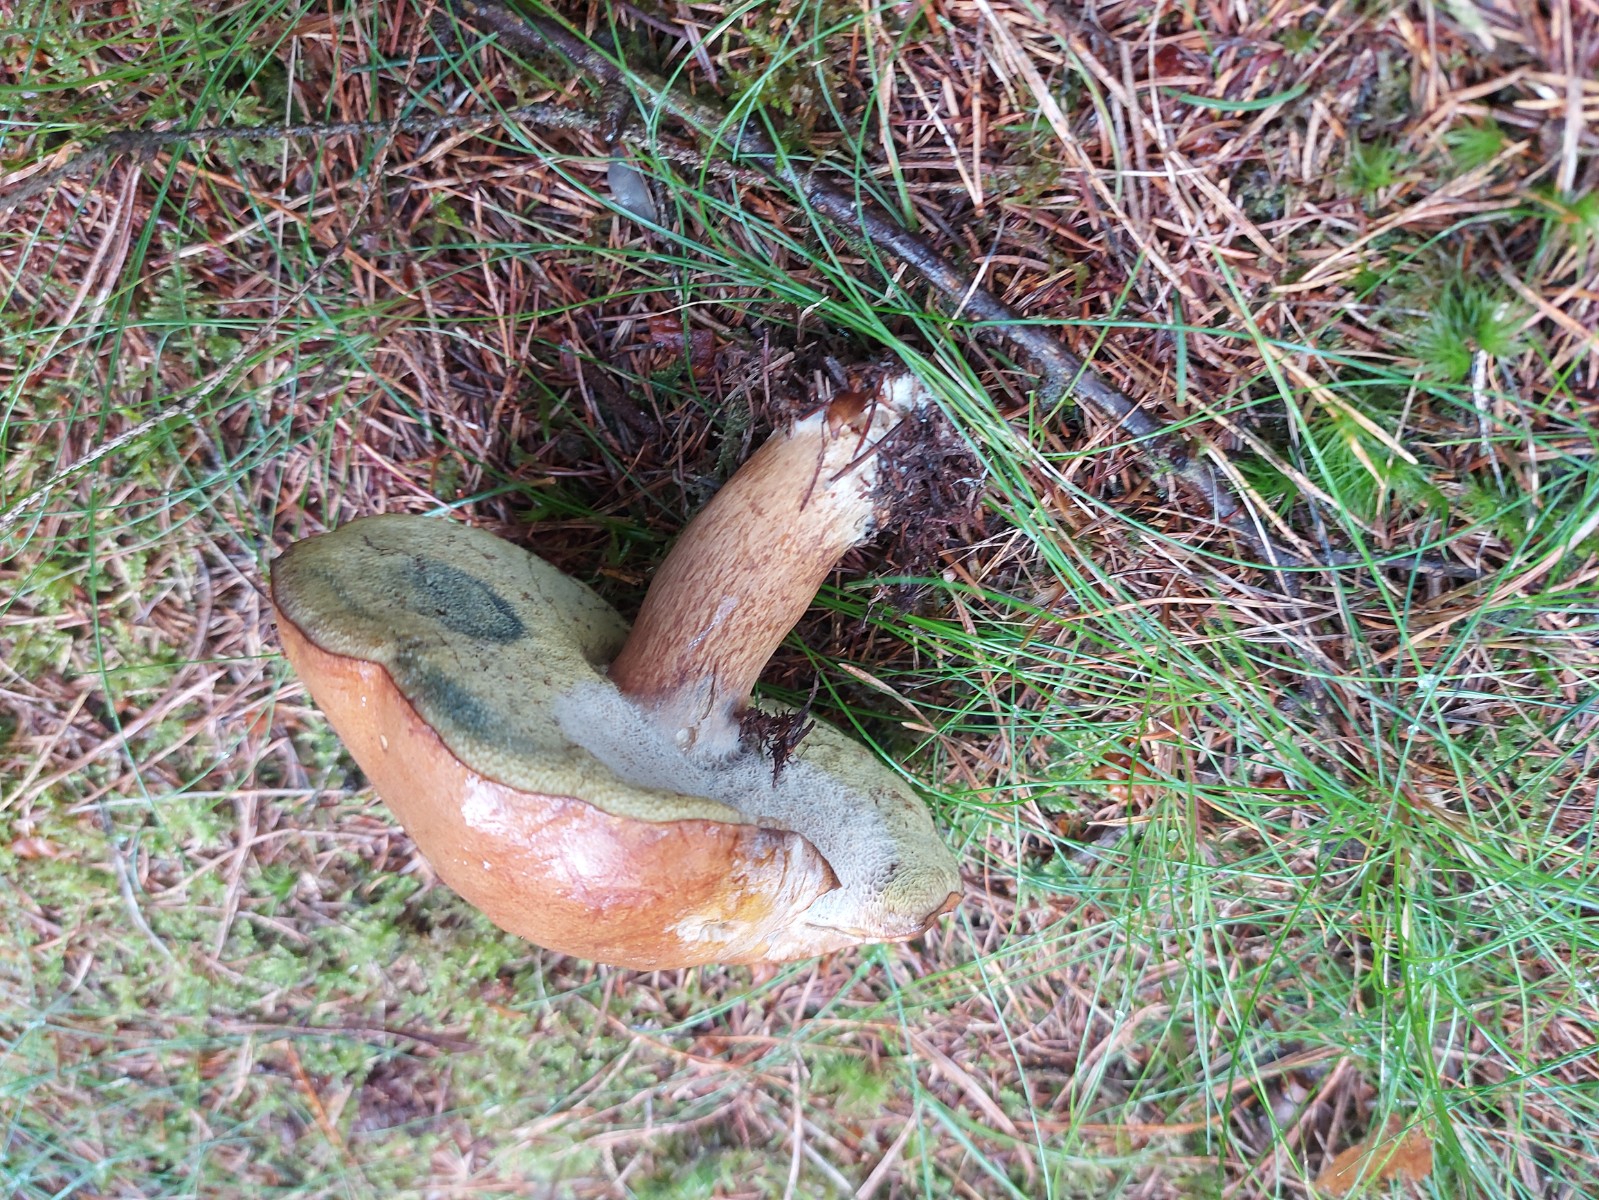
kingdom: Fungi
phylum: Basidiomycota
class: Agaricomycetes
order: Boletales
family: Boletaceae
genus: Imleria
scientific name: Imleria badia
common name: brunstokket rørhat
